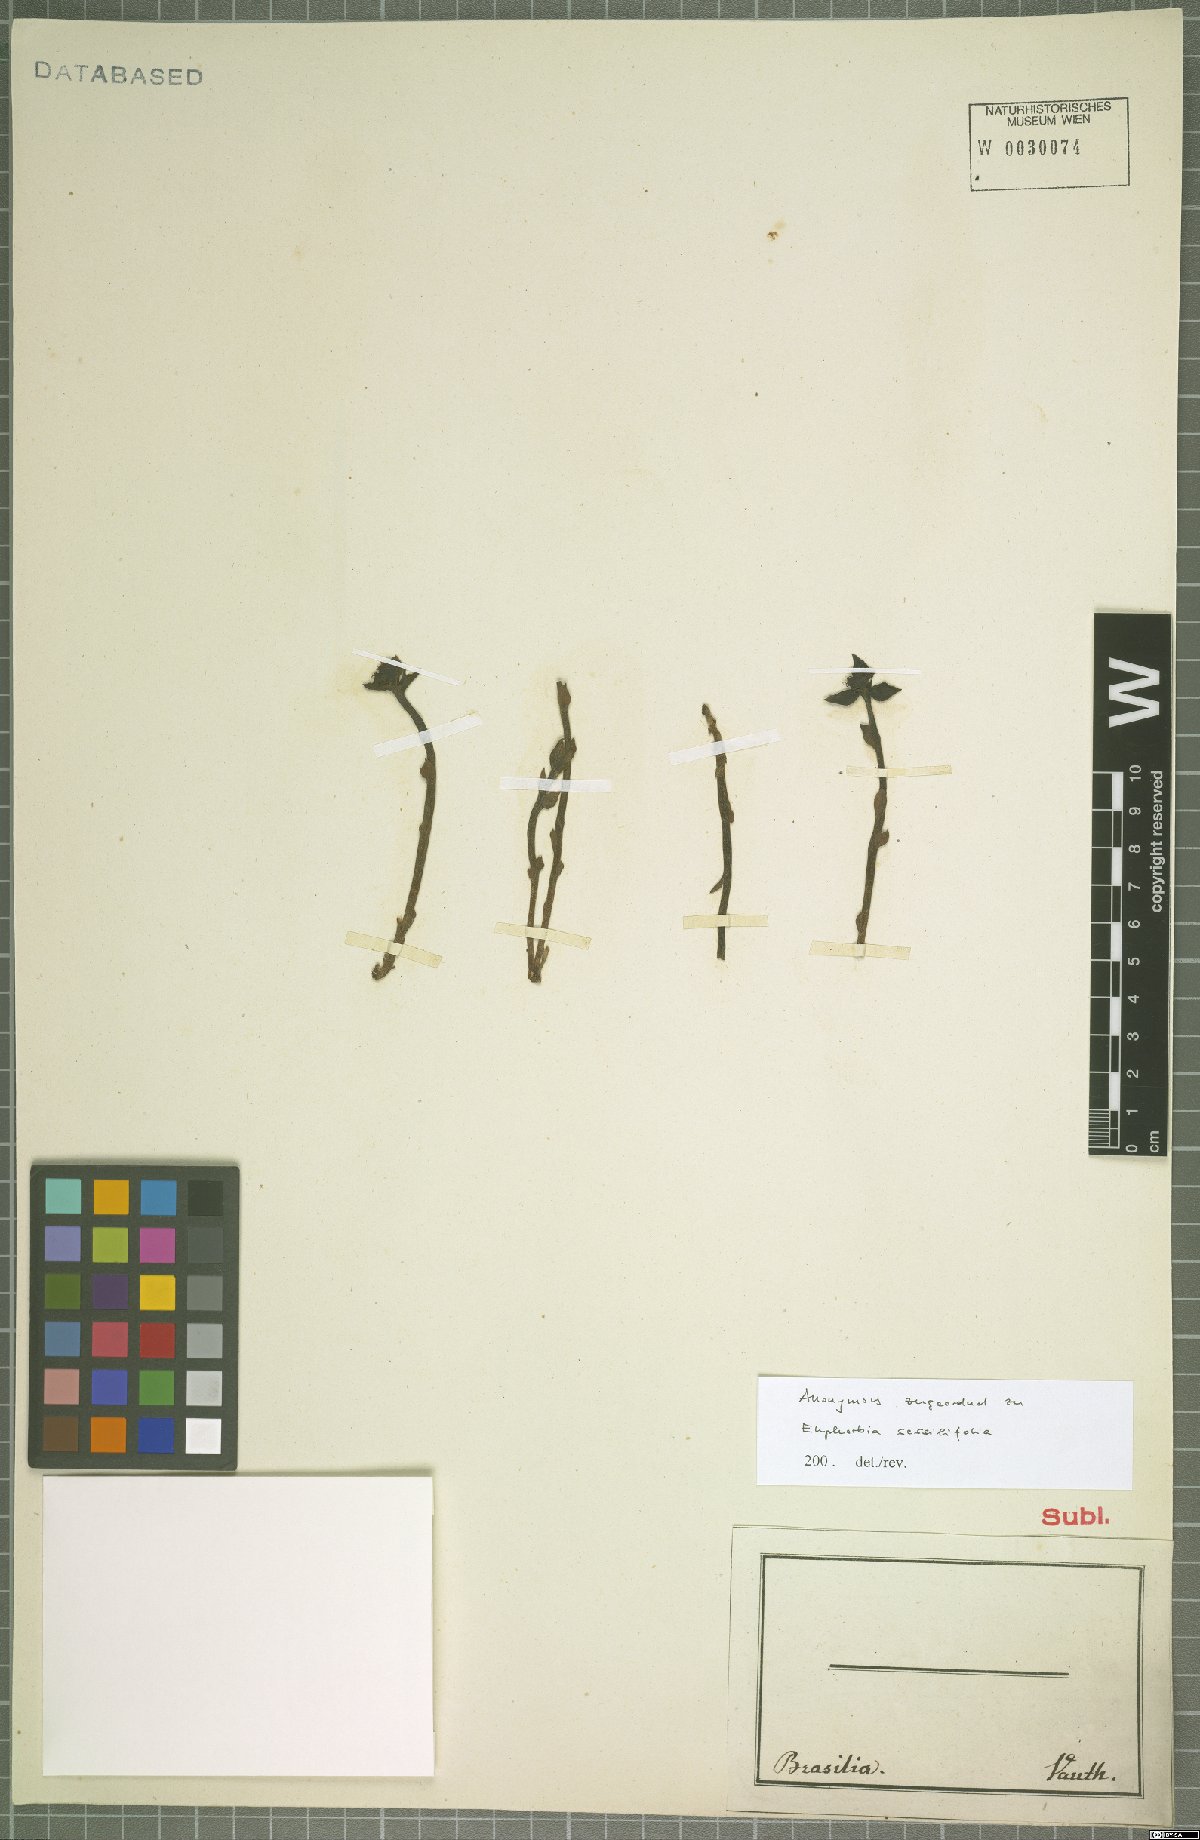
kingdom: Plantae
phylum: Tracheophyta
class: Magnoliopsida
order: Malpighiales
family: Euphorbiaceae
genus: Euphorbia
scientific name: Euphorbia sessilifolia
